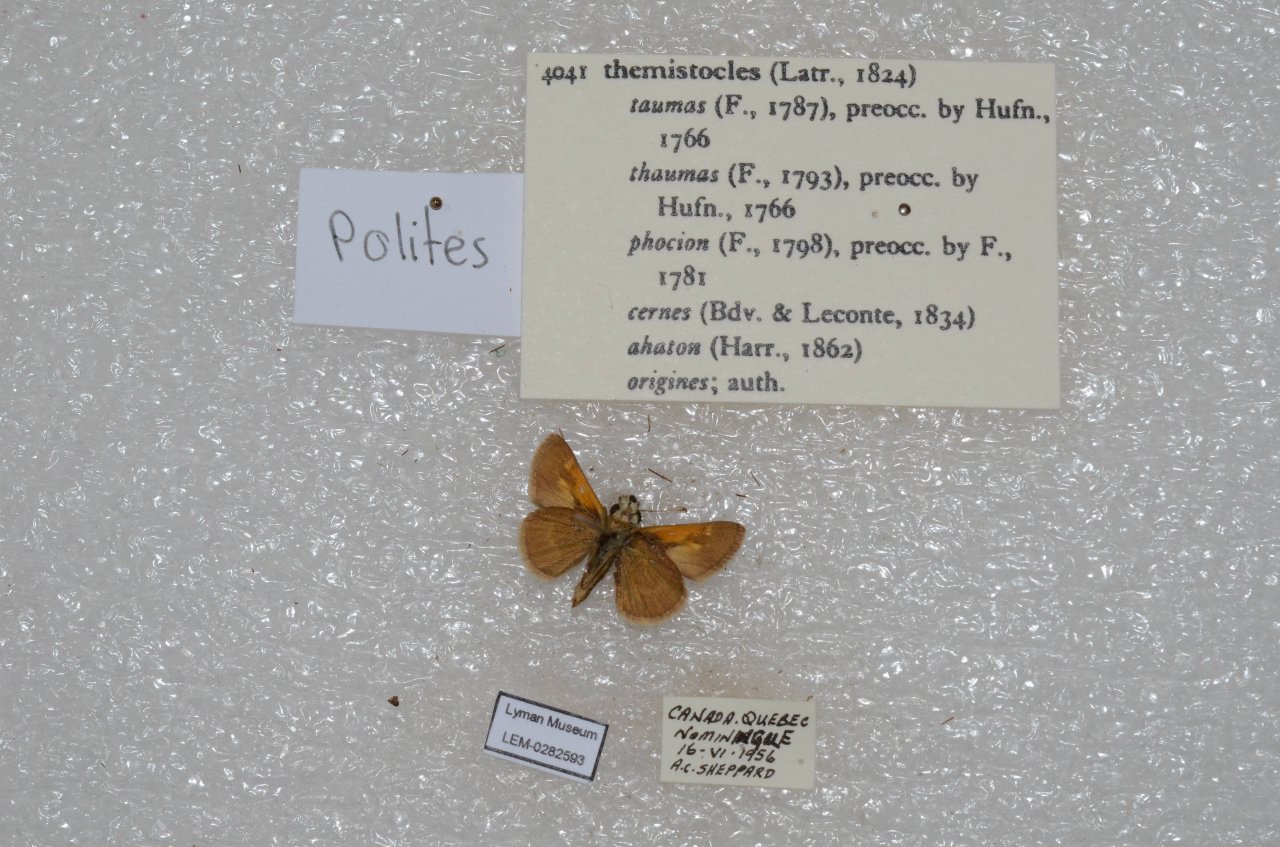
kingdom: Animalia
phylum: Arthropoda
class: Insecta
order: Lepidoptera
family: Hesperiidae
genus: Polites
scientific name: Polites themistocles
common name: Tawny-edged Skipper
